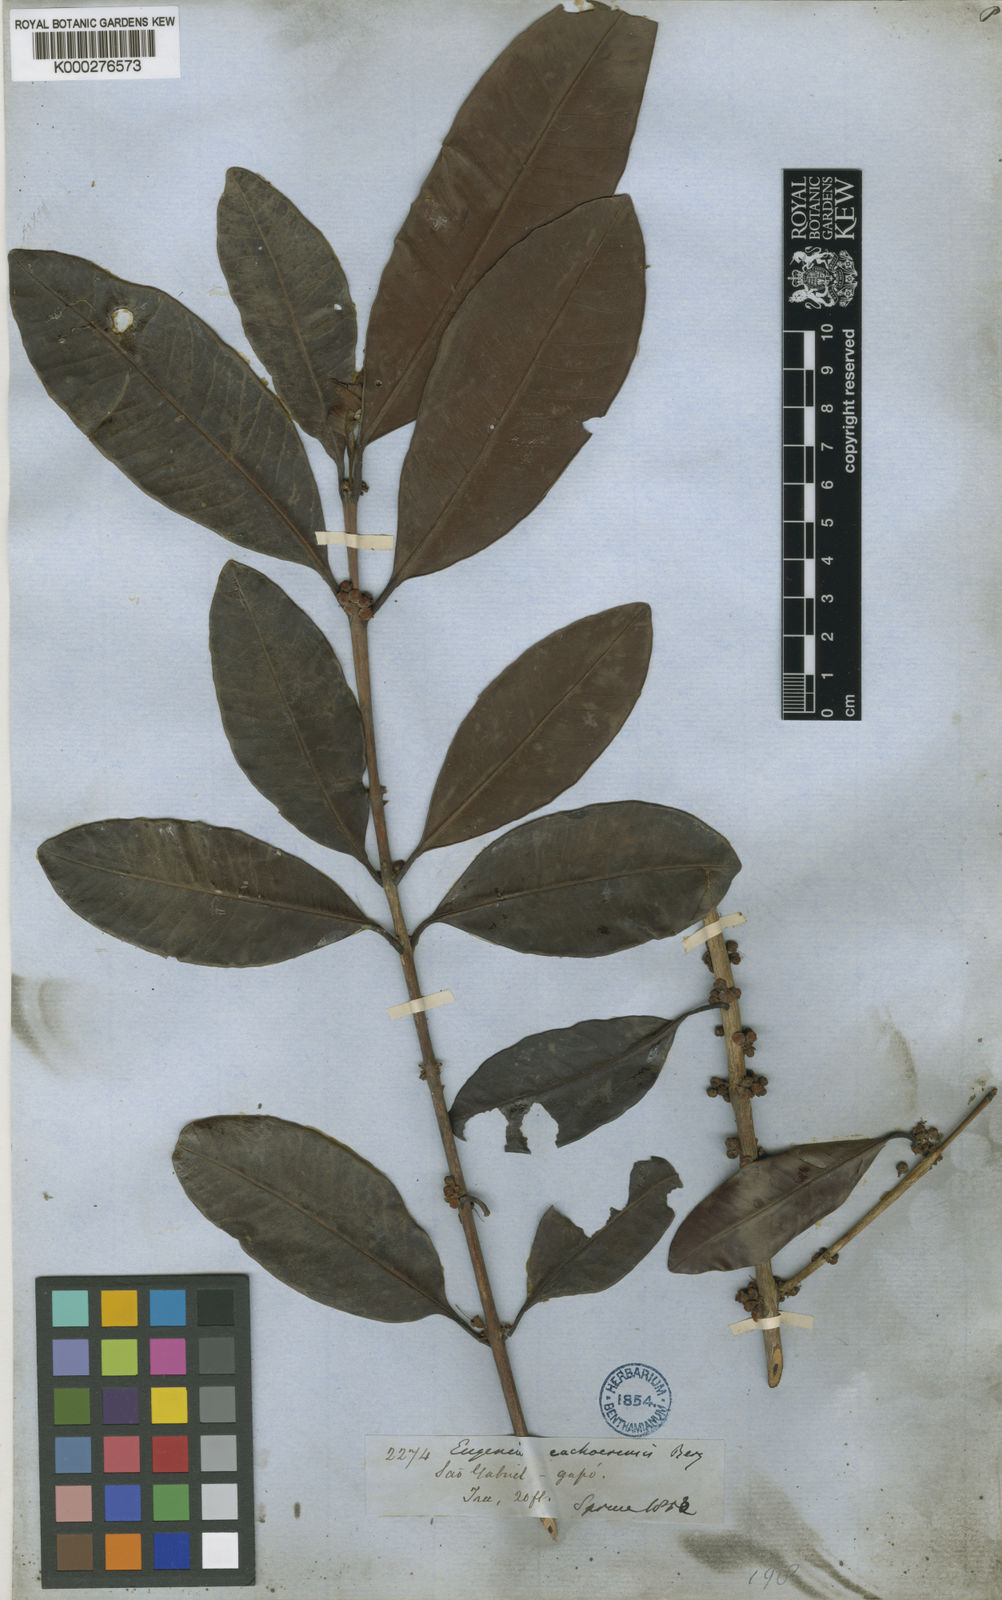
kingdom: Plantae
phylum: Tracheophyta
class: Magnoliopsida
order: Myrtales
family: Myrtaceae
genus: Eugenia
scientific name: Eugenia cachoeirensis
